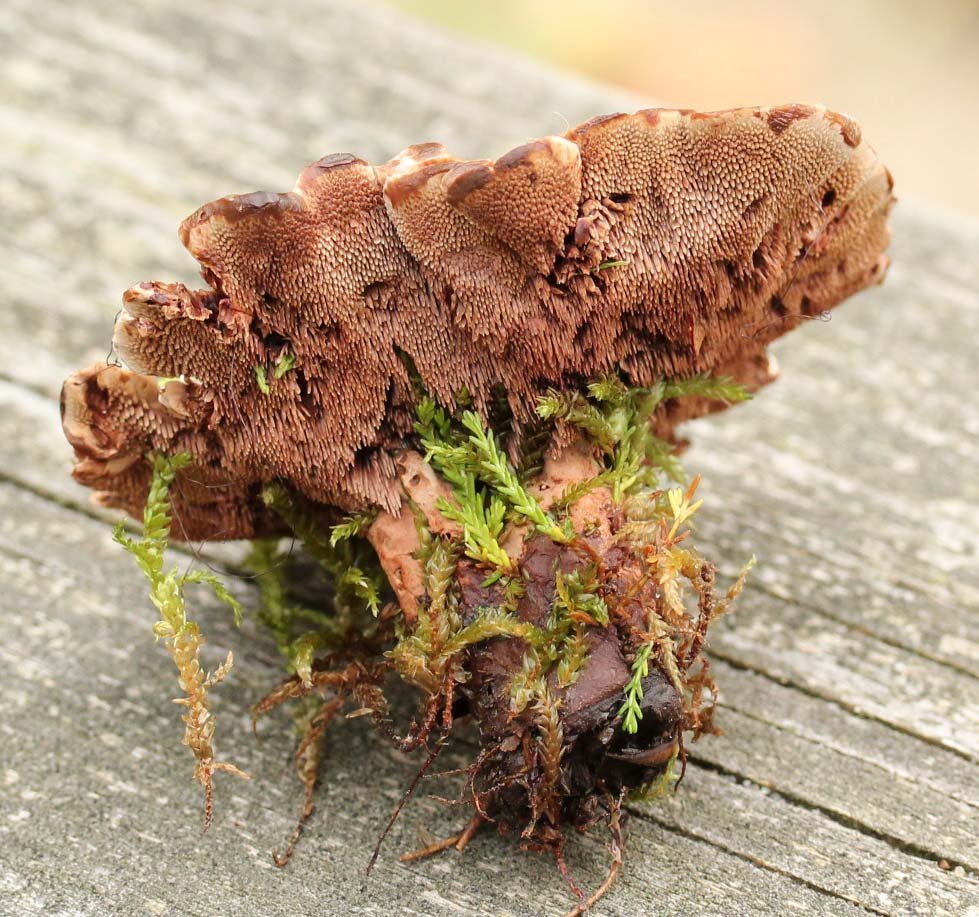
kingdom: Fungi
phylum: Basidiomycota
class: Agaricomycetes
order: Thelephorales
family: Bankeraceae
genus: Hydnellum
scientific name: Hydnellum concrescens
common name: bæltet korkpigsvamp
